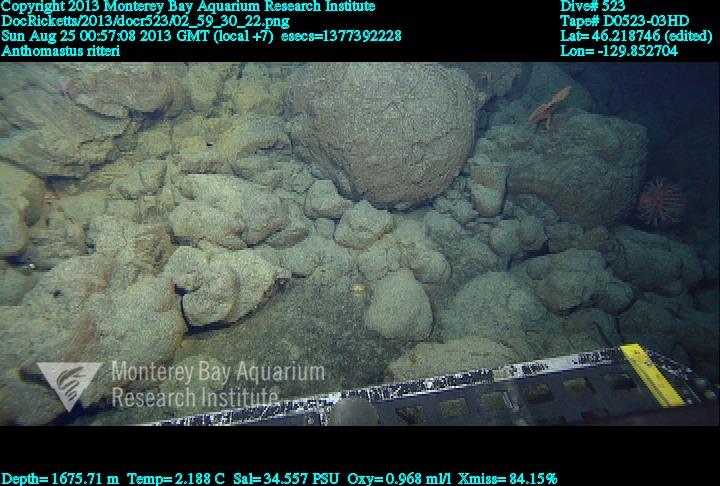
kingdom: Animalia
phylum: Cnidaria
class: Anthozoa
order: Scleralcyonacea
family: Coralliidae
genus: Heteropolypus
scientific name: Heteropolypus ritteri
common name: Ritter's soft coral
